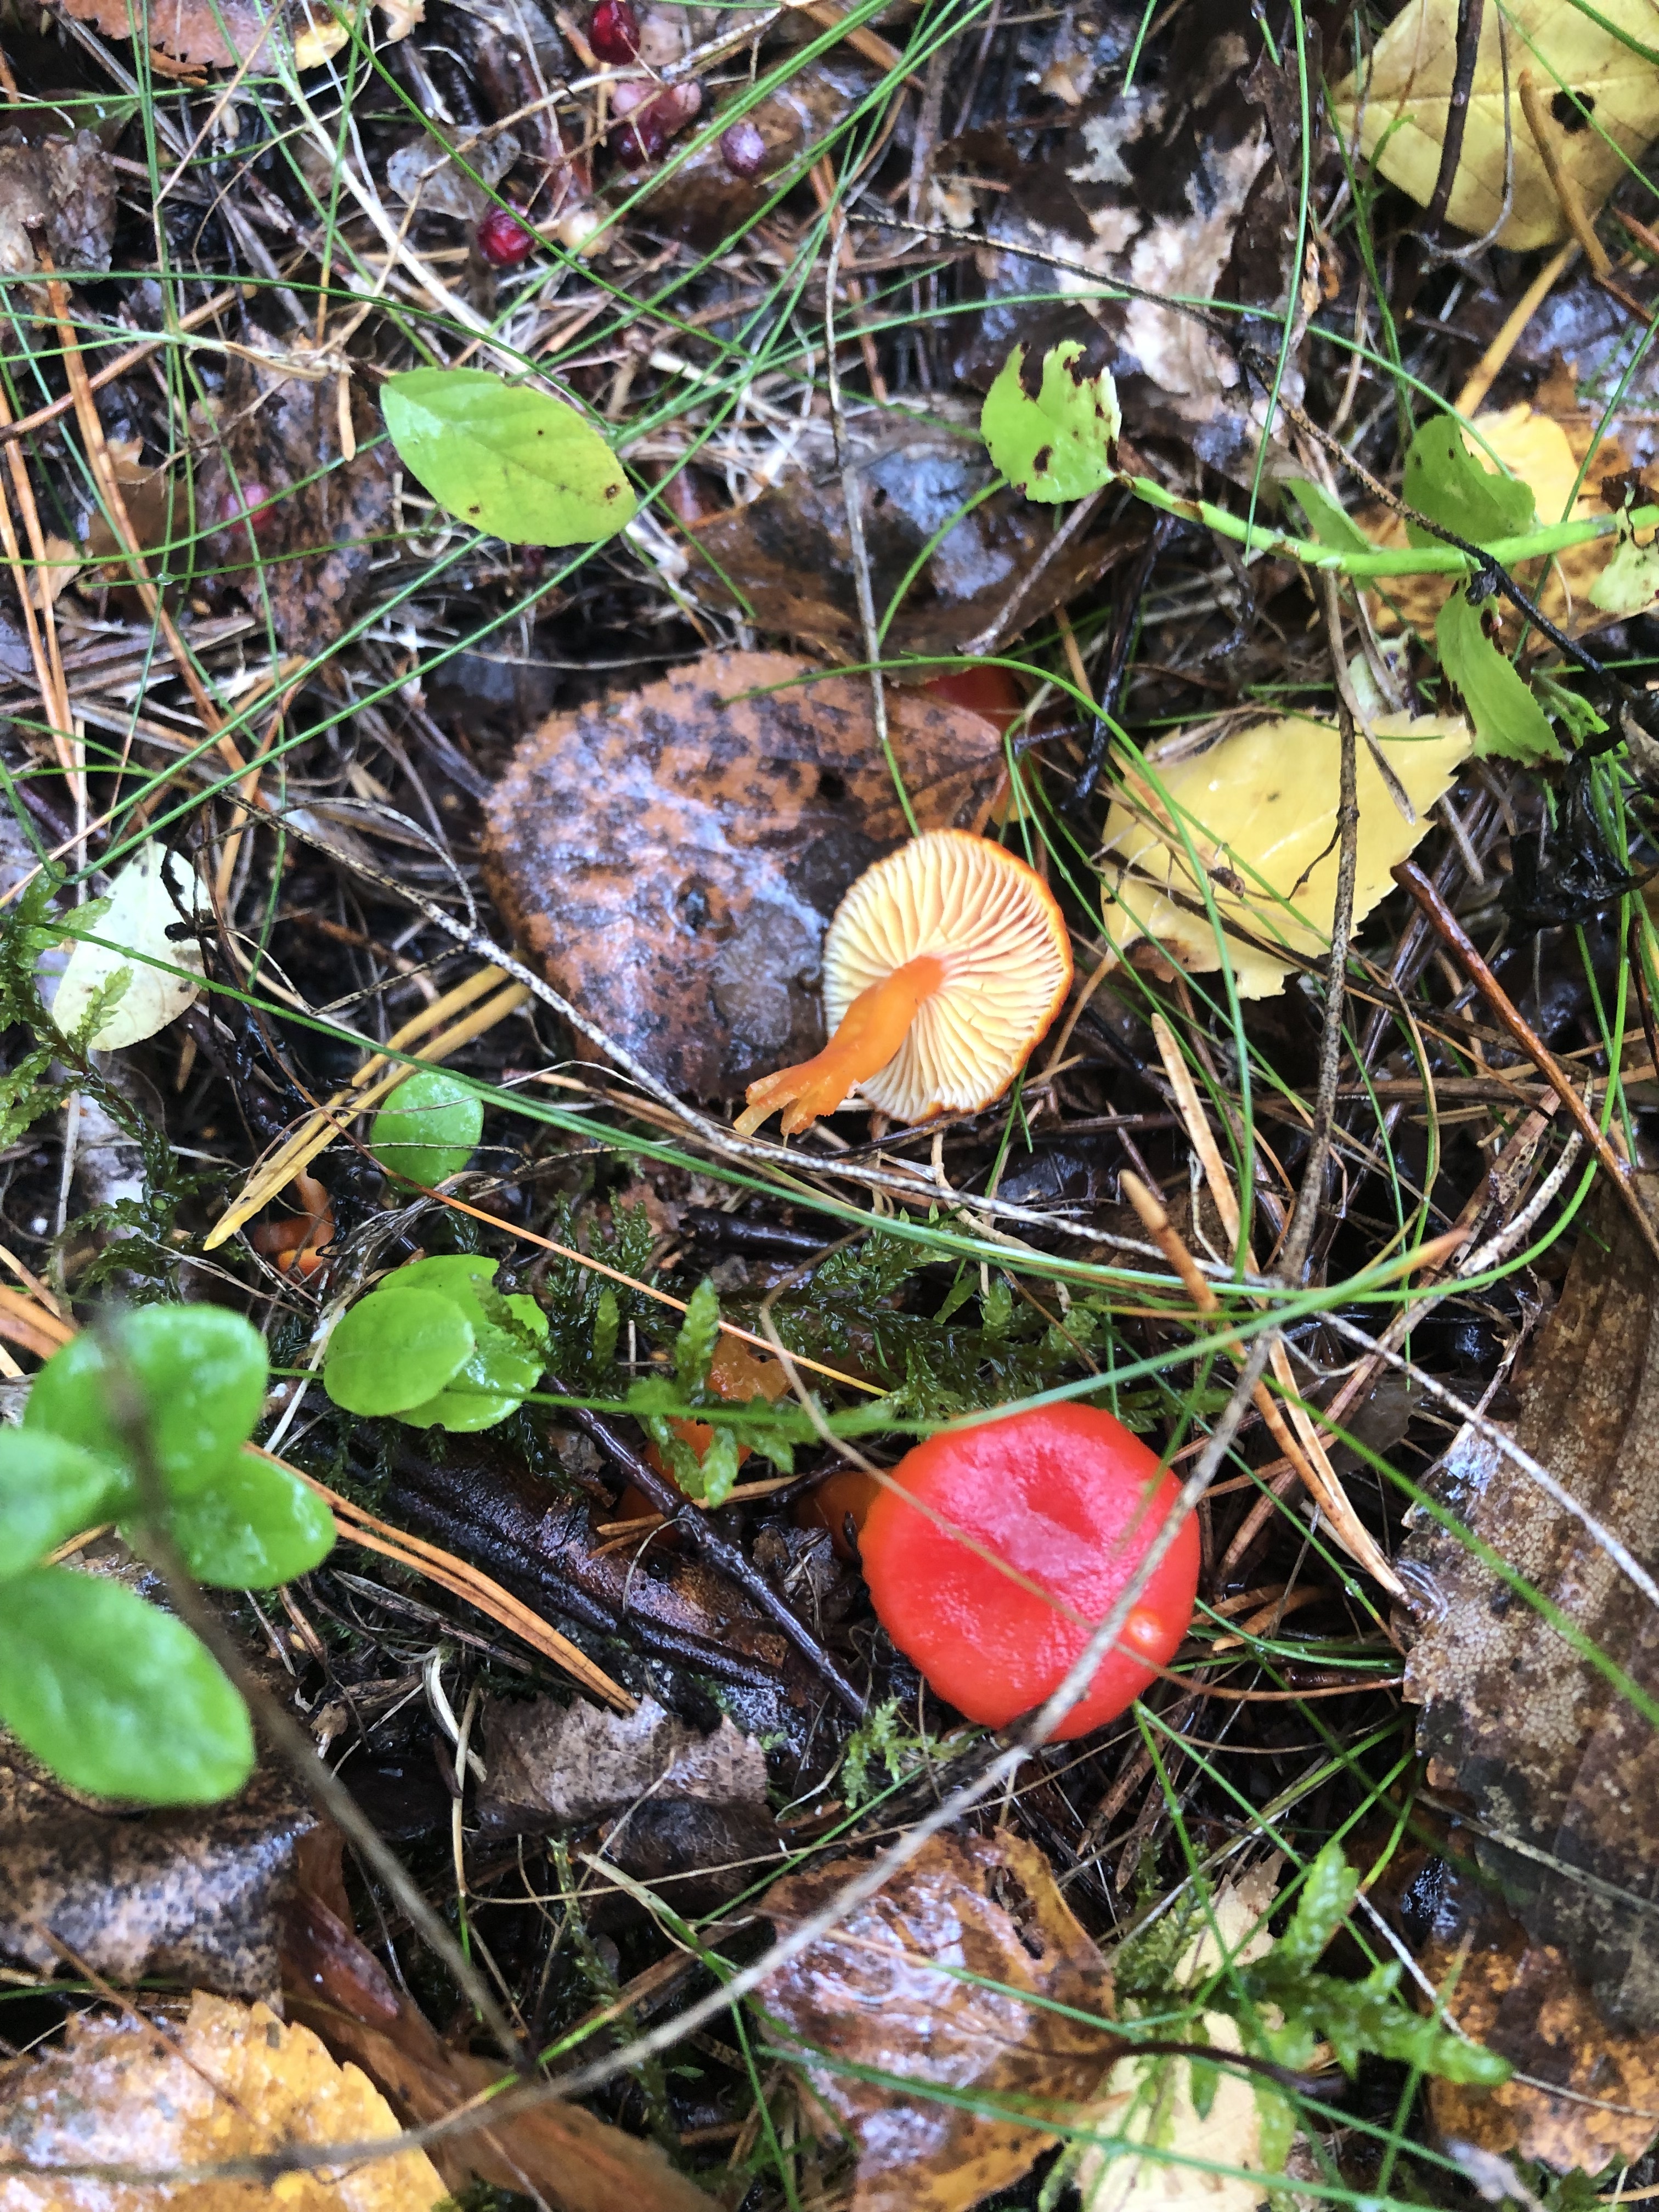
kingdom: Fungi
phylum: Basidiomycota
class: Agaricomycetes
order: Agaricales
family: Hygrophoraceae
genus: Hygrocybe
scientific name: Hygrocybe coccinea
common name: Scarlet hood
